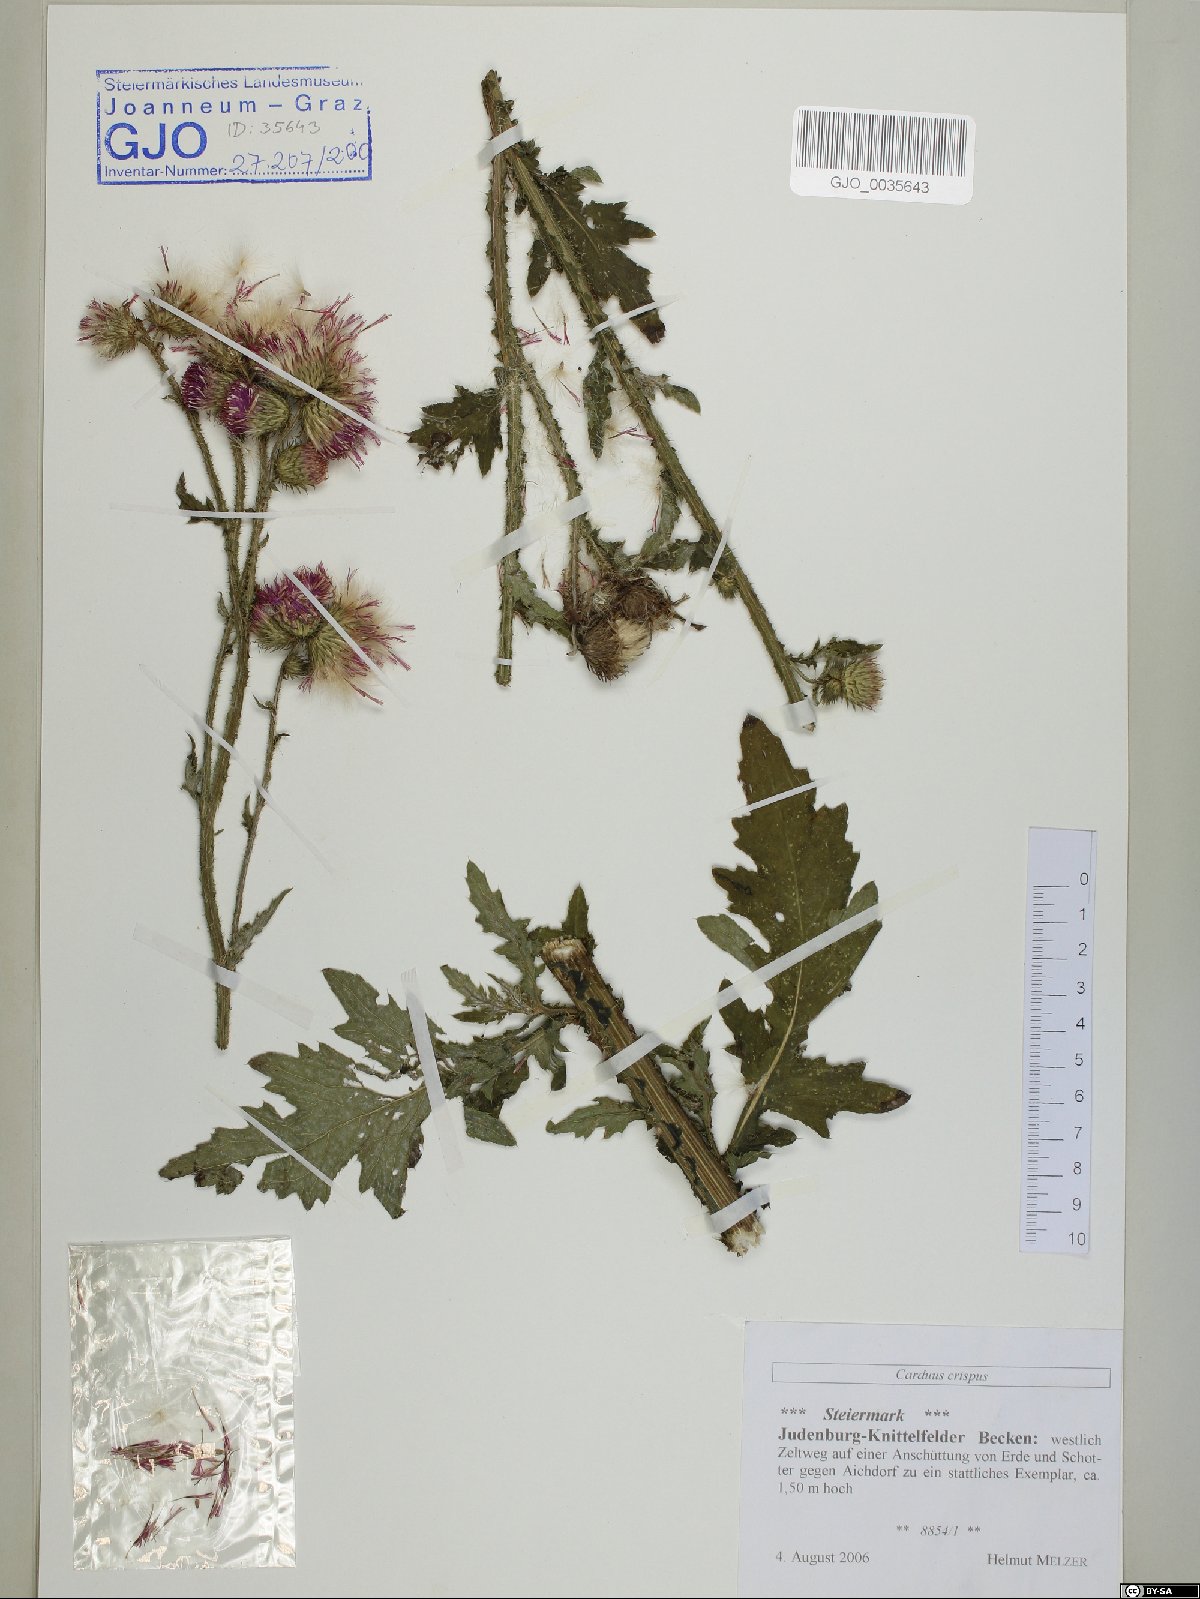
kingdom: Plantae
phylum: Tracheophyta
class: Magnoliopsida
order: Asterales
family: Asteraceae
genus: Carduus
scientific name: Carduus crispus
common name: Welted thistle
